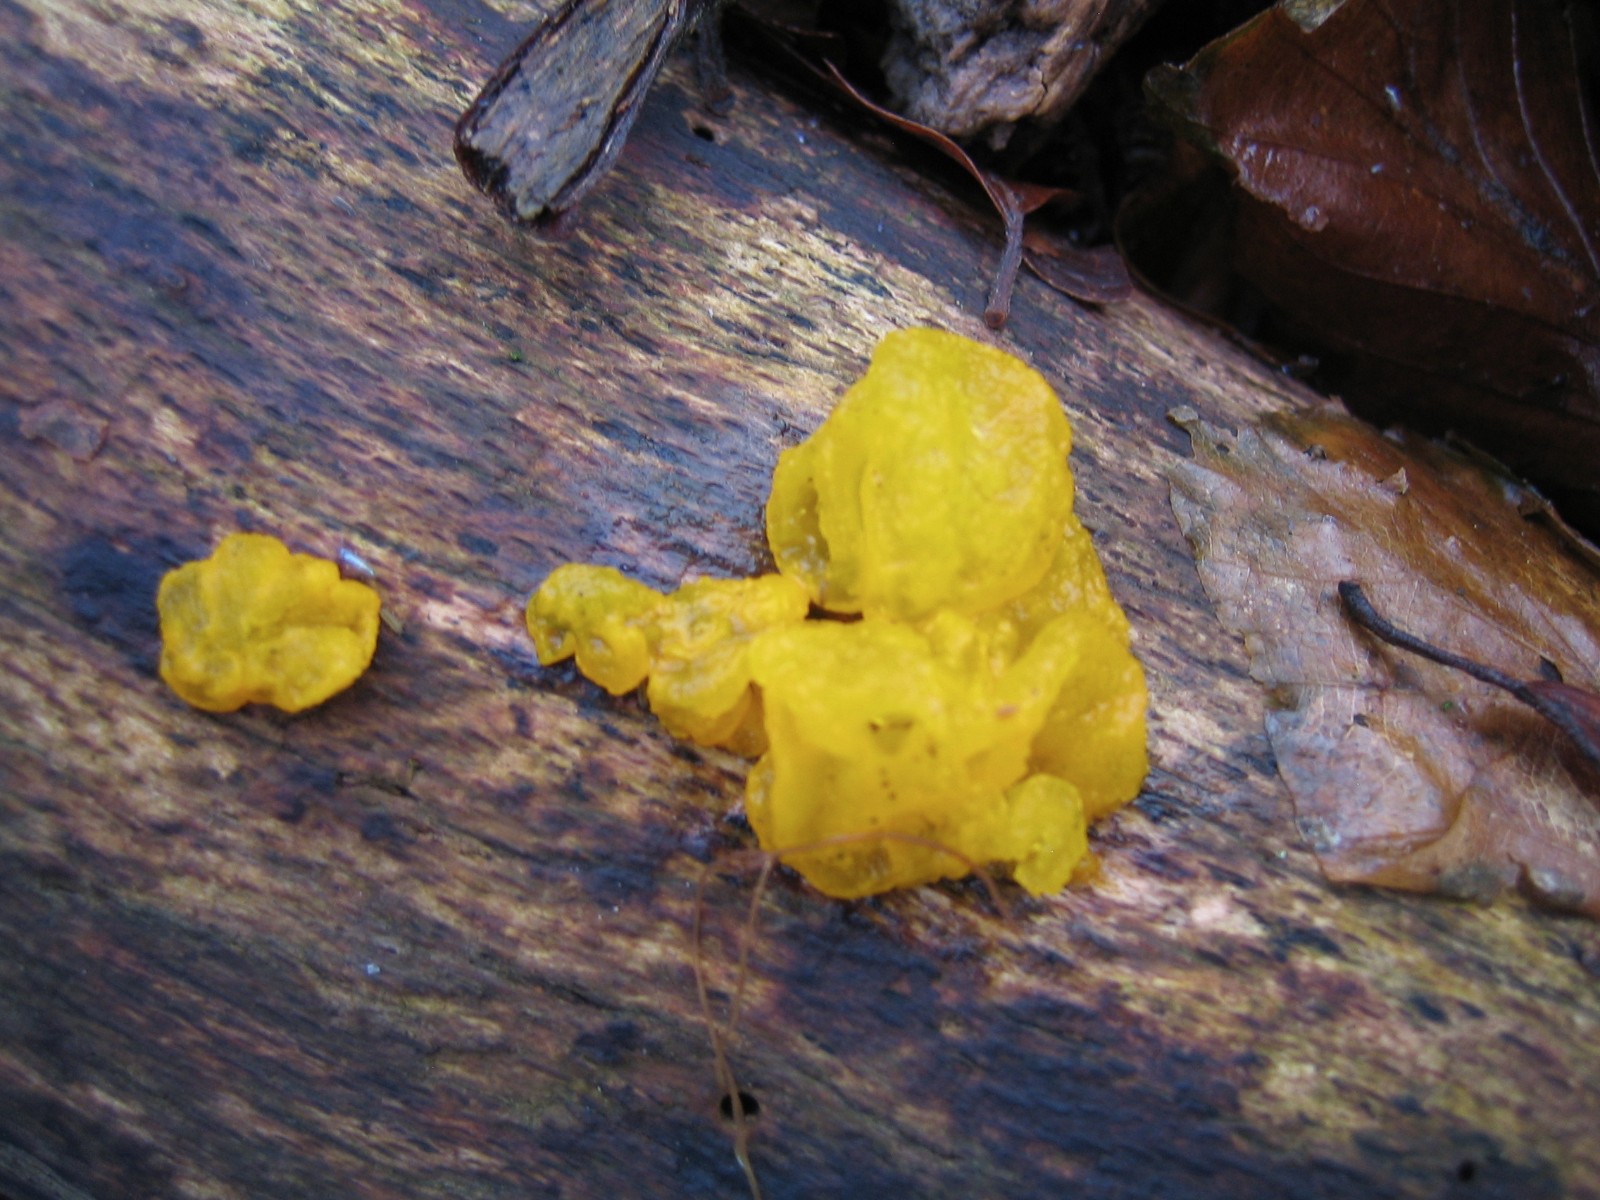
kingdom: Fungi
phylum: Basidiomycota
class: Tremellomycetes
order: Tremellales
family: Tremellaceae
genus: Tremella
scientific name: Tremella mesenterica
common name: gul bævresvamp
